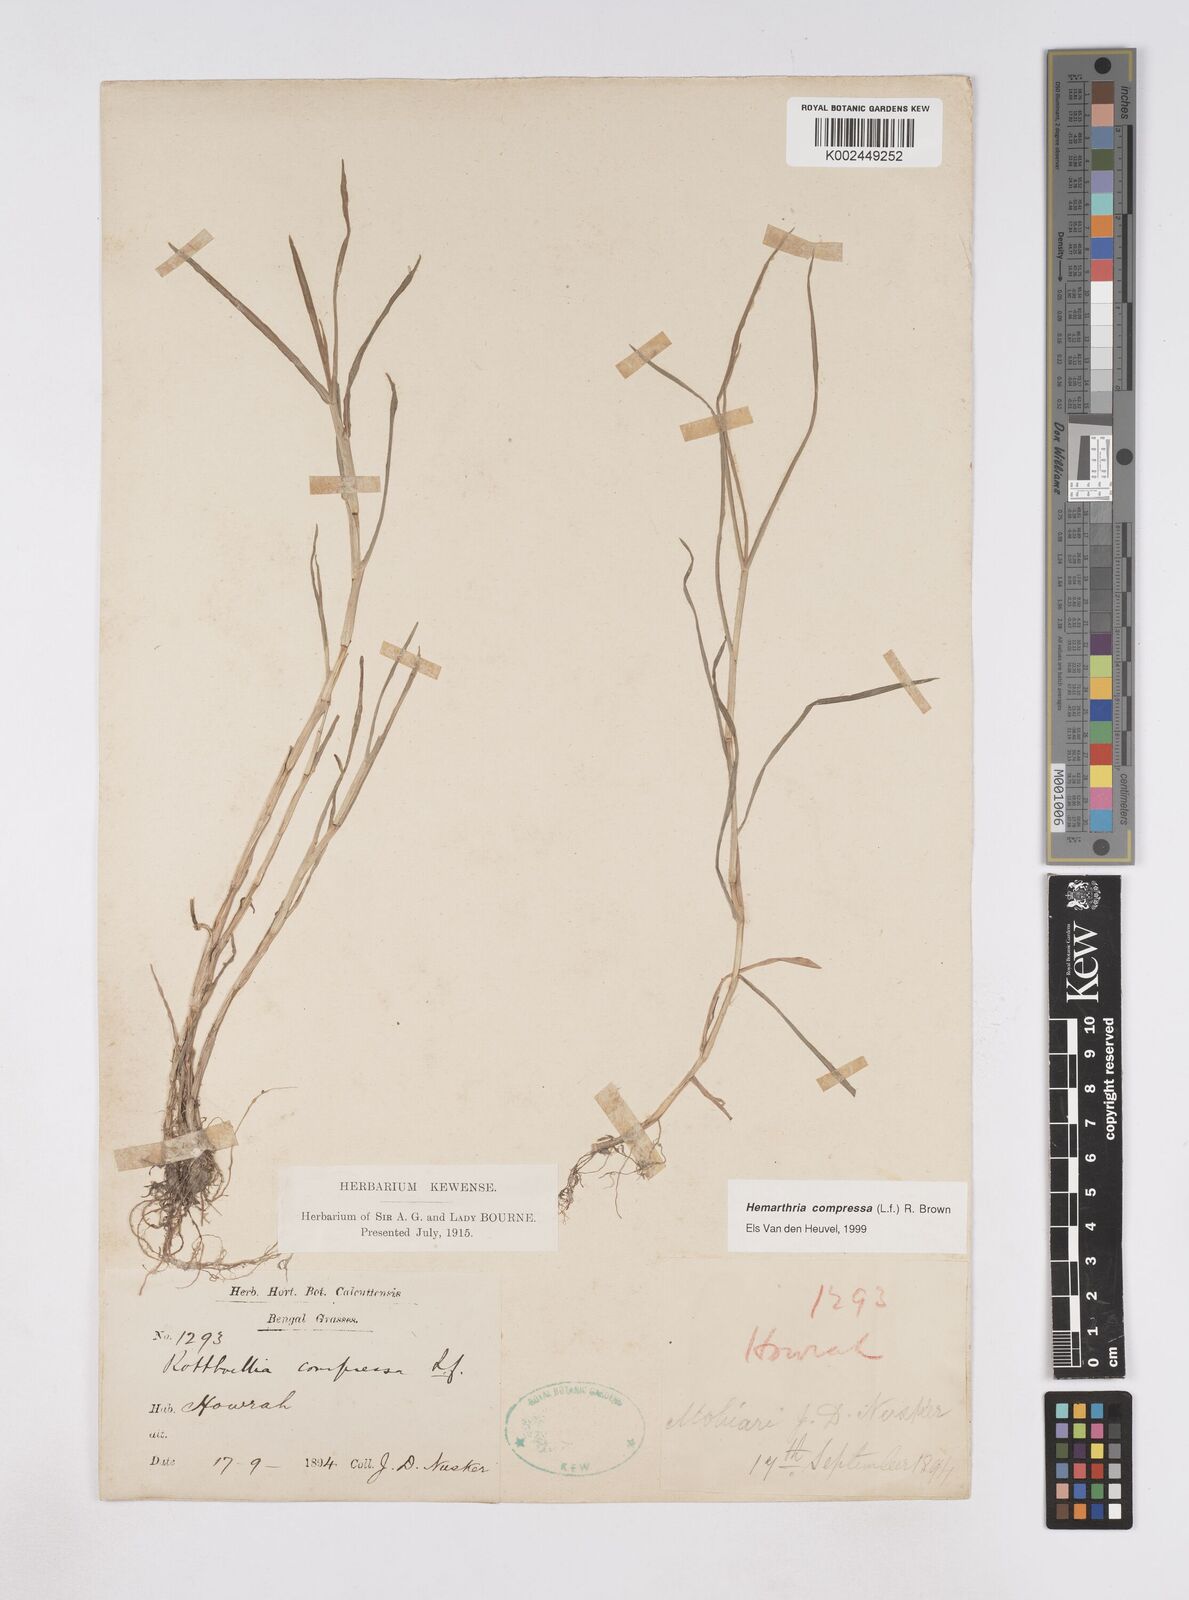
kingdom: Plantae
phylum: Tracheophyta
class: Liliopsida
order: Poales
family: Poaceae
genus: Hemarthria
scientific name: Hemarthria compressa
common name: Whip grass
